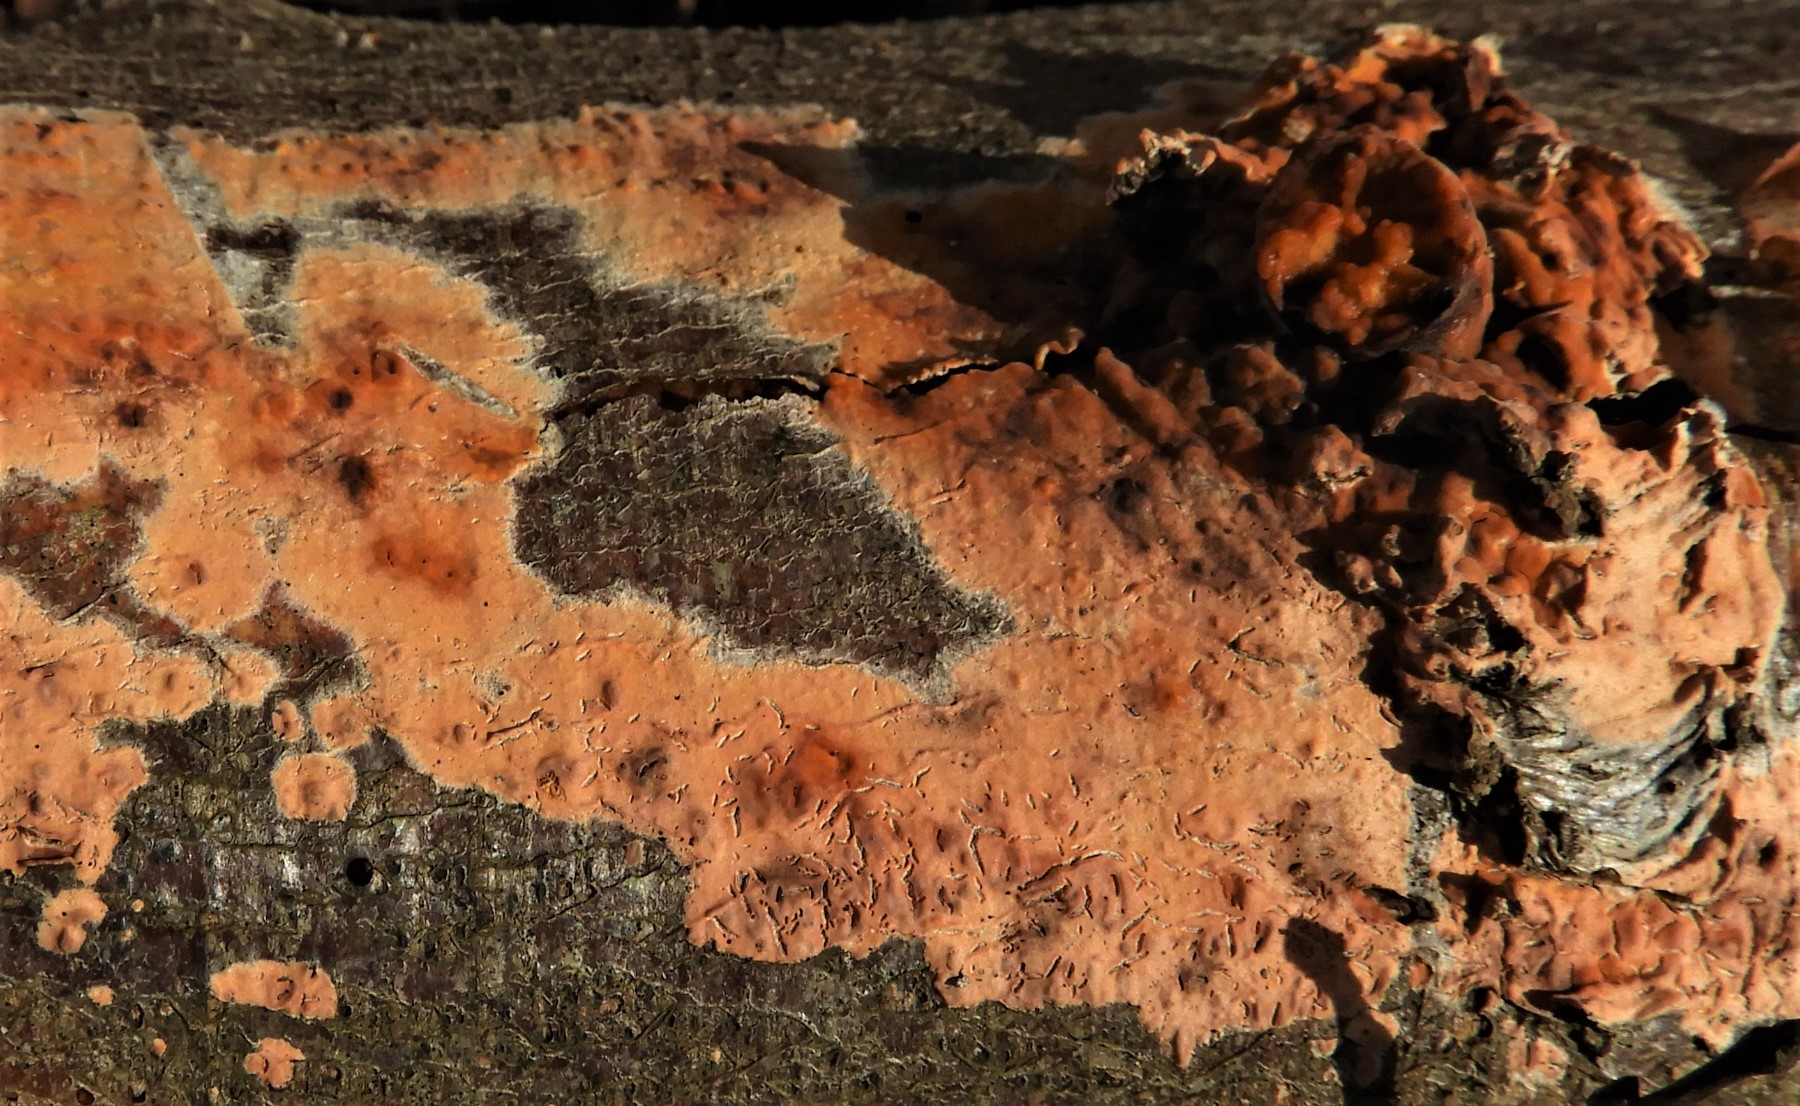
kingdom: Fungi
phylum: Basidiomycota
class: Agaricomycetes
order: Russulales
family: Peniophoraceae
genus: Peniophora
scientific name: Peniophora incarnata
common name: laksefarvet voksskind
